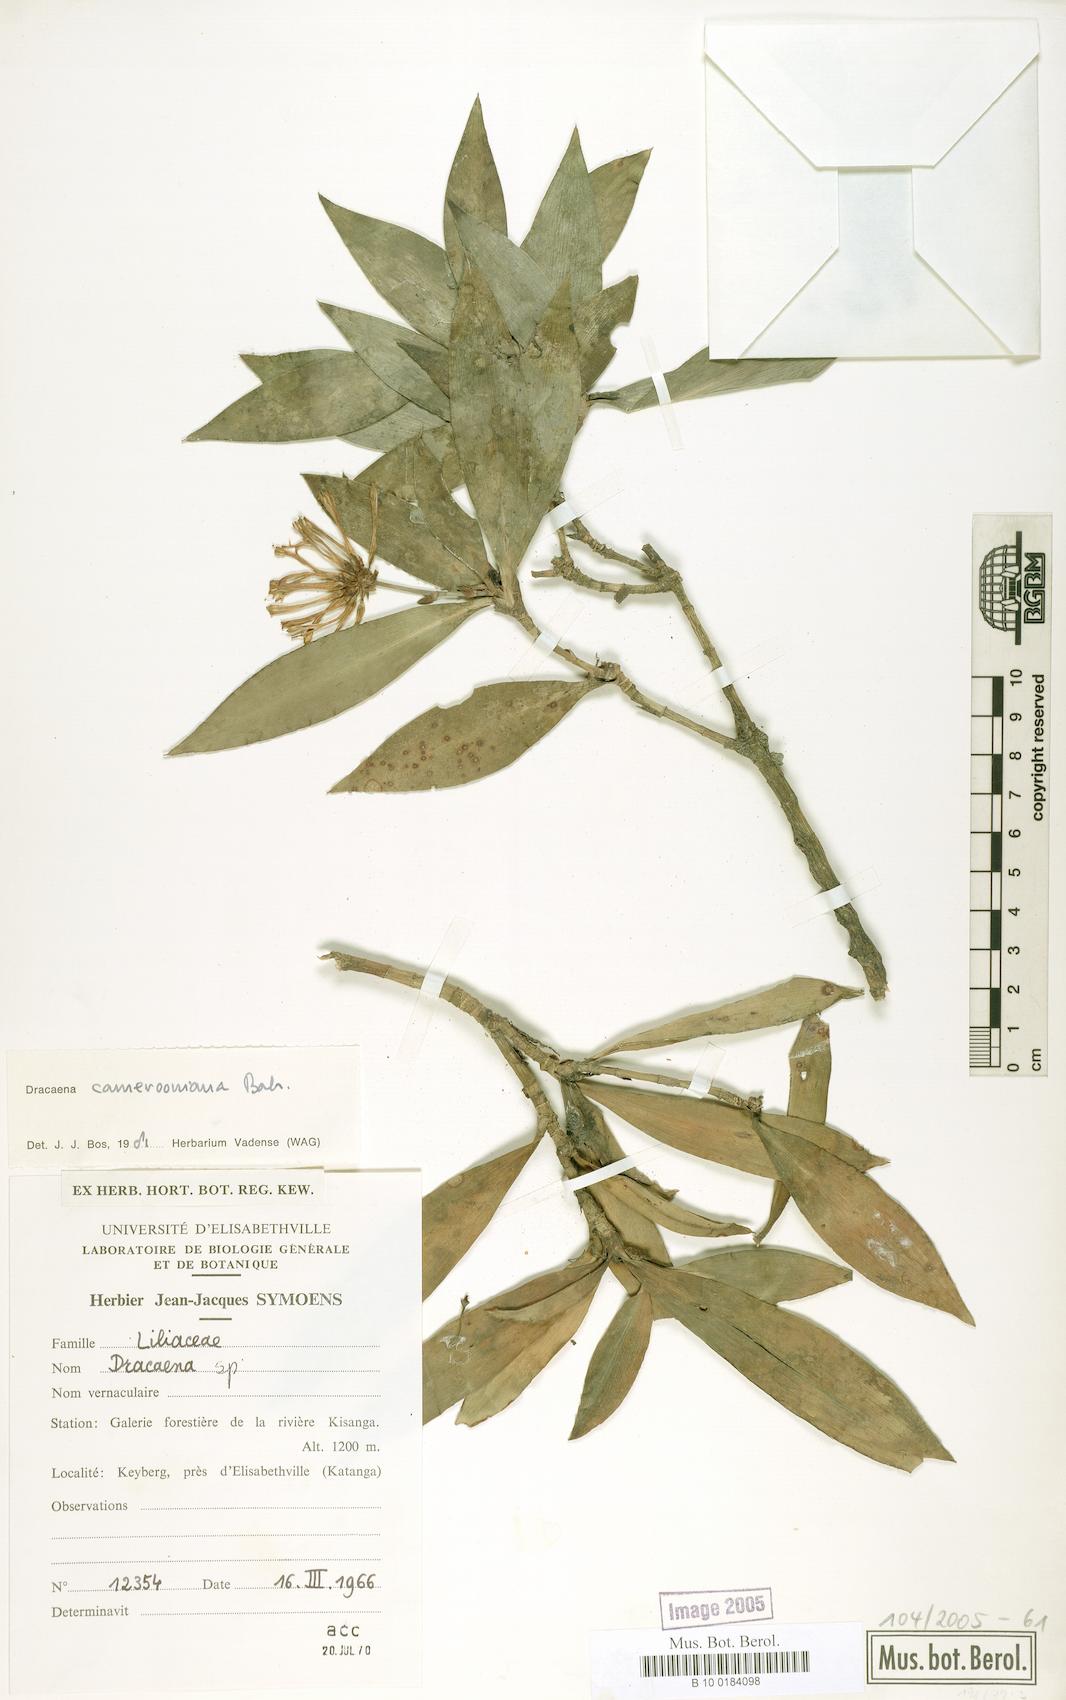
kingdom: Plantae
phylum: Tracheophyta
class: Liliopsida
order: Asparagales
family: Asparagaceae
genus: Dracaena
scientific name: Dracaena camerooniana
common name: Dragon tree
